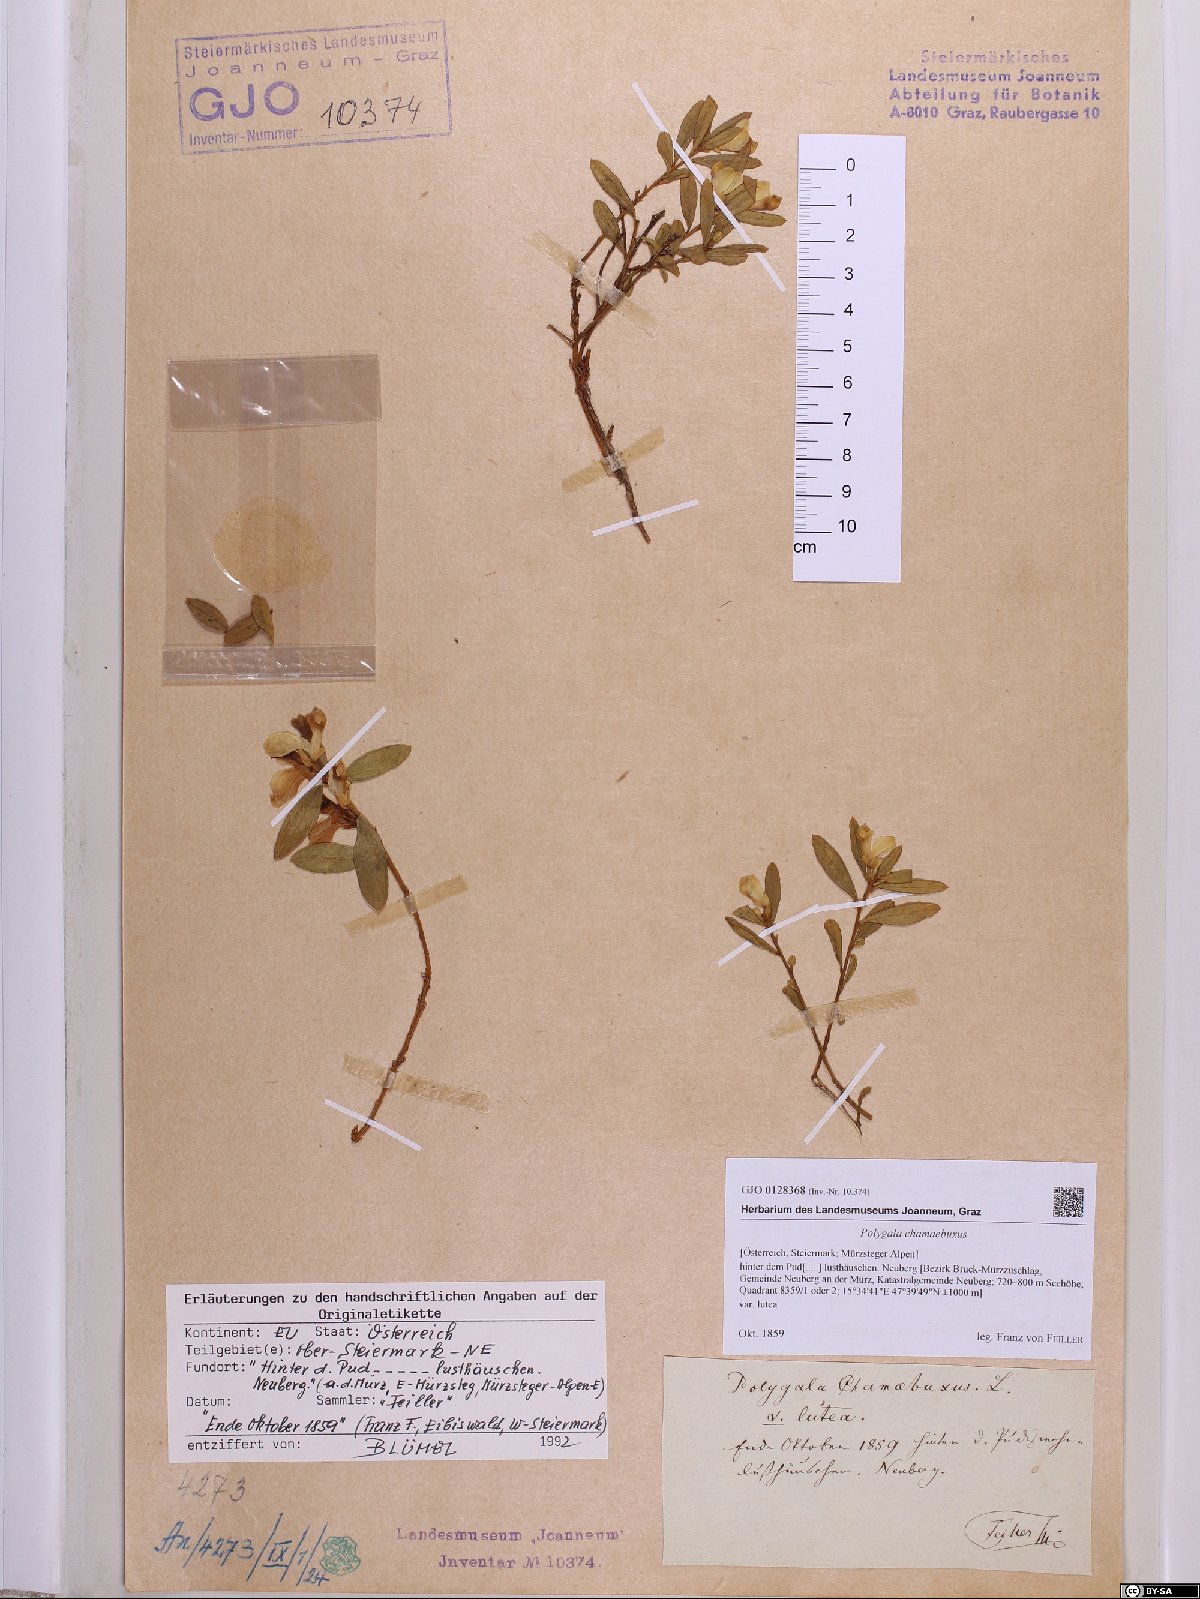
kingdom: Plantae
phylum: Tracheophyta
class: Magnoliopsida
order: Fabales
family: Polygalaceae
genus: Polygaloides
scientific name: Polygaloides chamaebuxus
